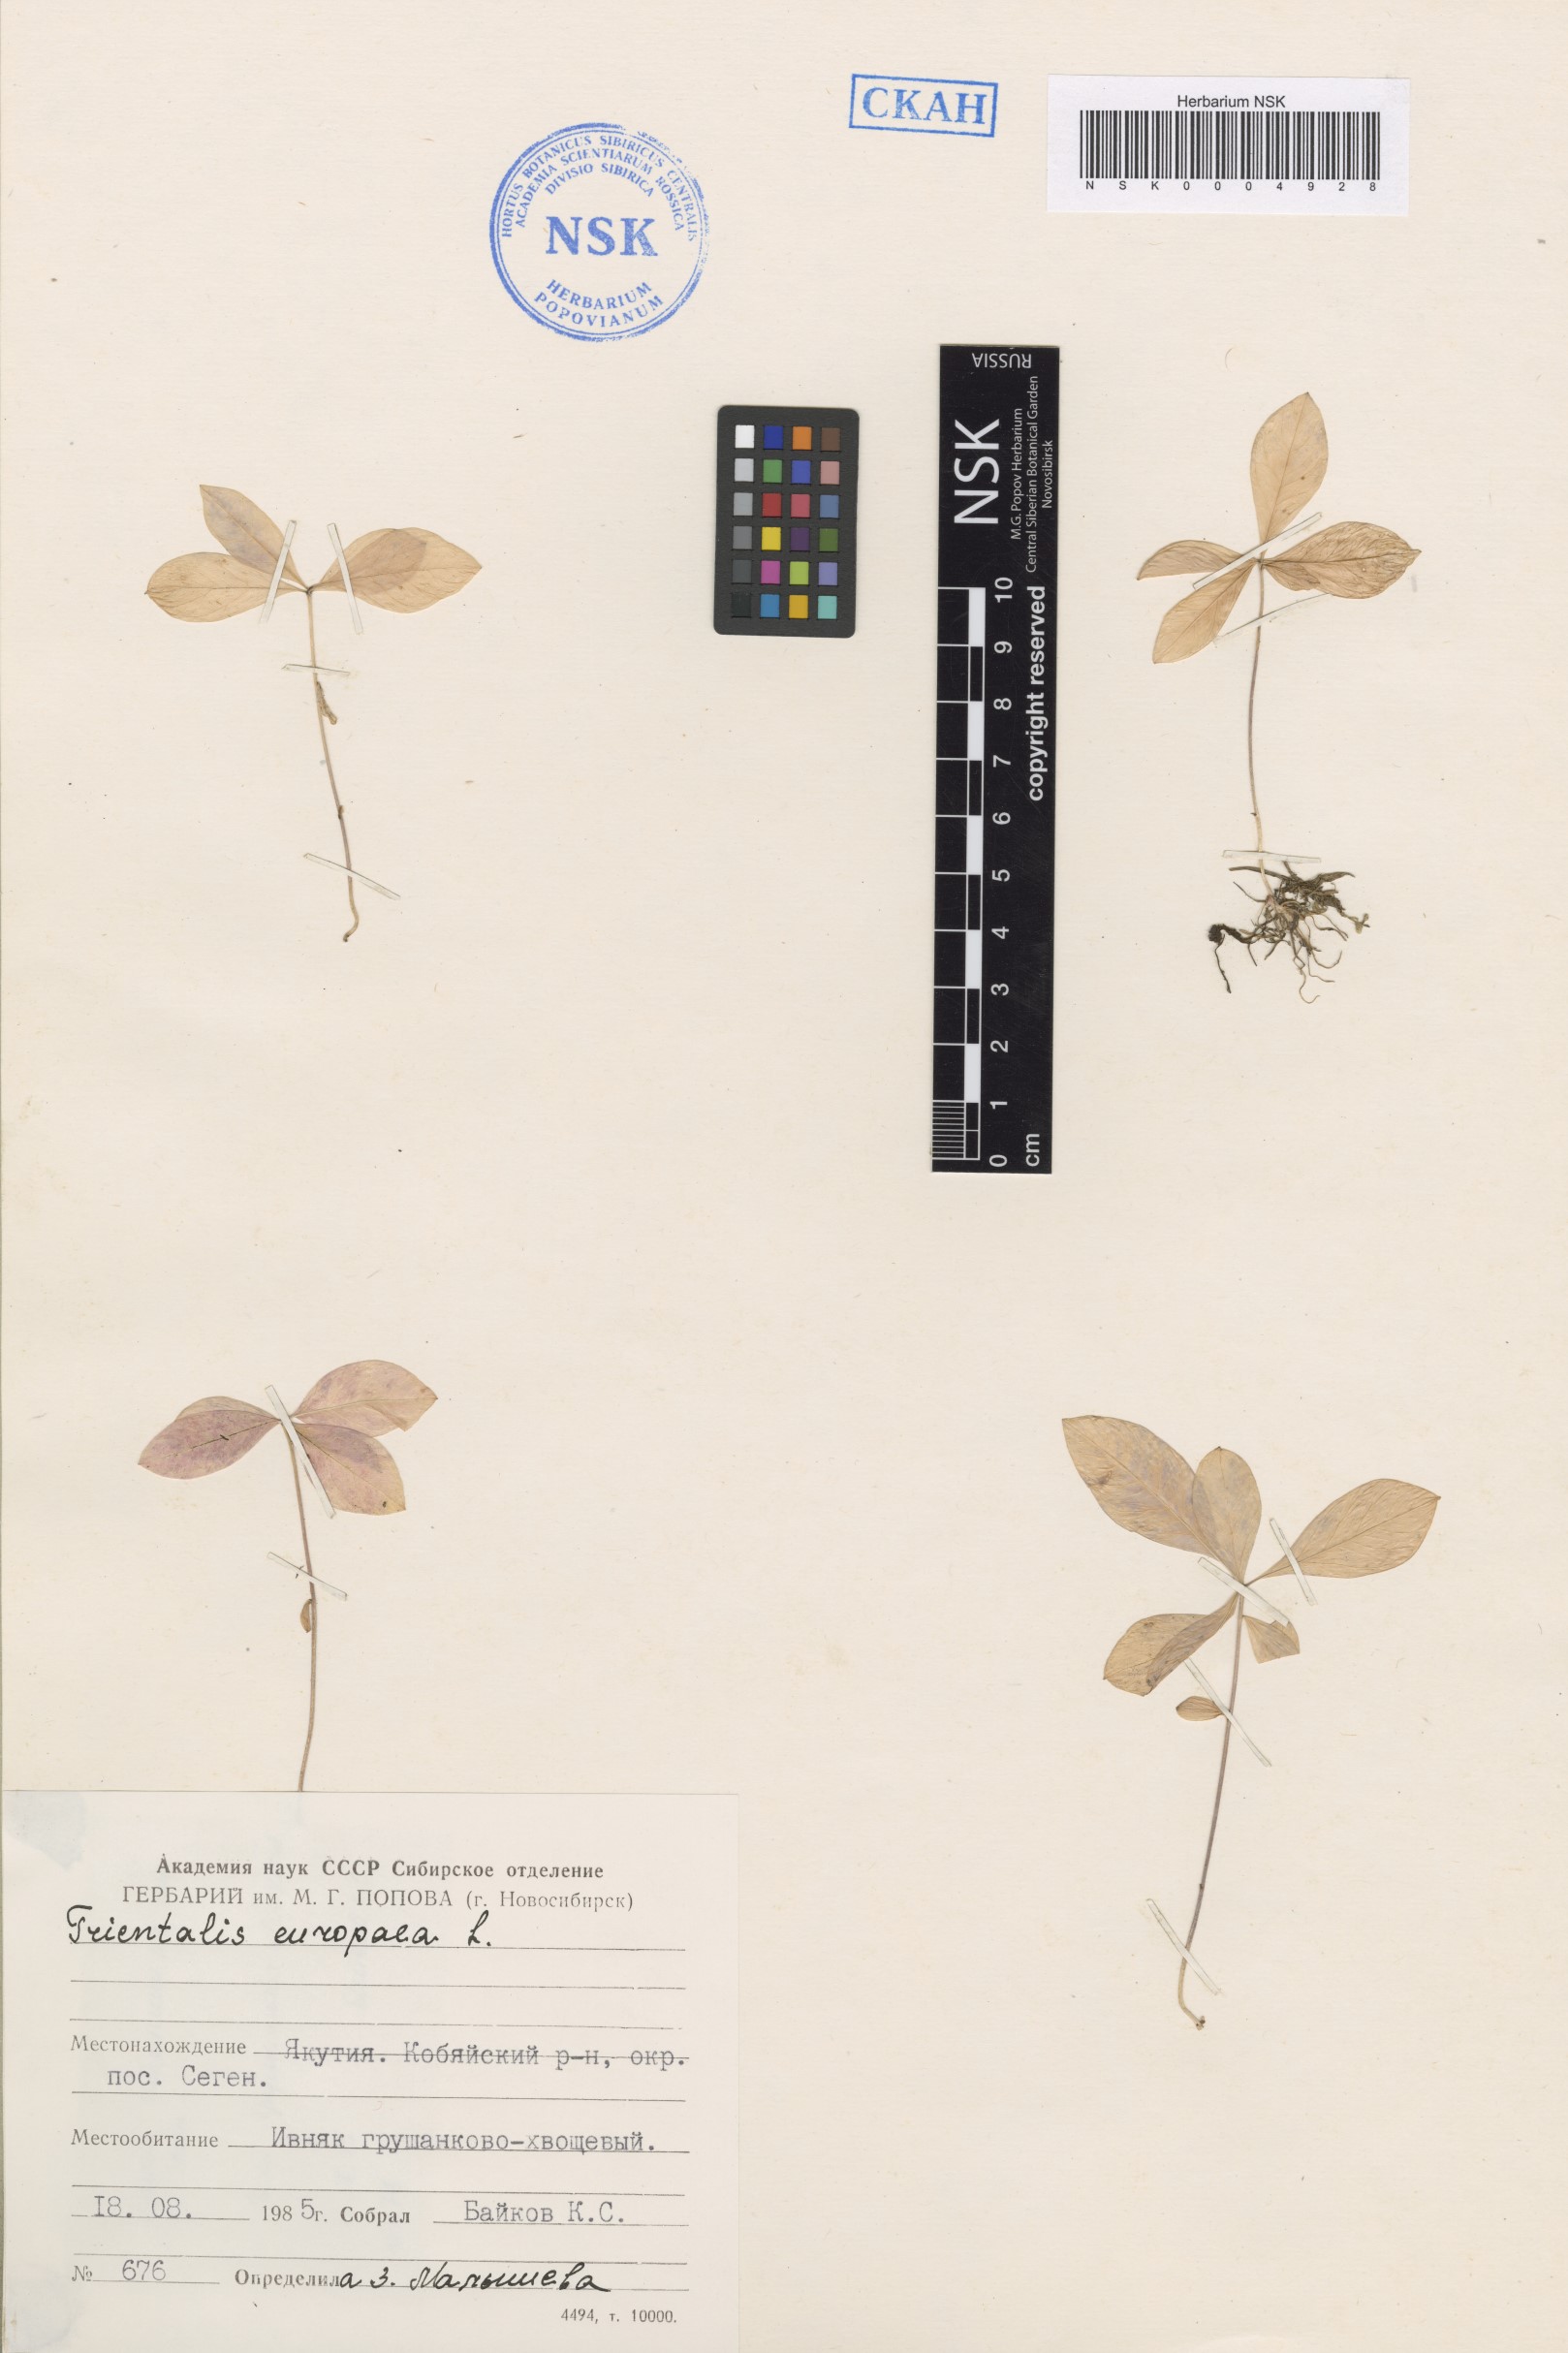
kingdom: Plantae
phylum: Tracheophyta
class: Magnoliopsida
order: Ericales
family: Primulaceae
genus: Lysimachia
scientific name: Lysimachia europaea
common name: Arctic starflower
